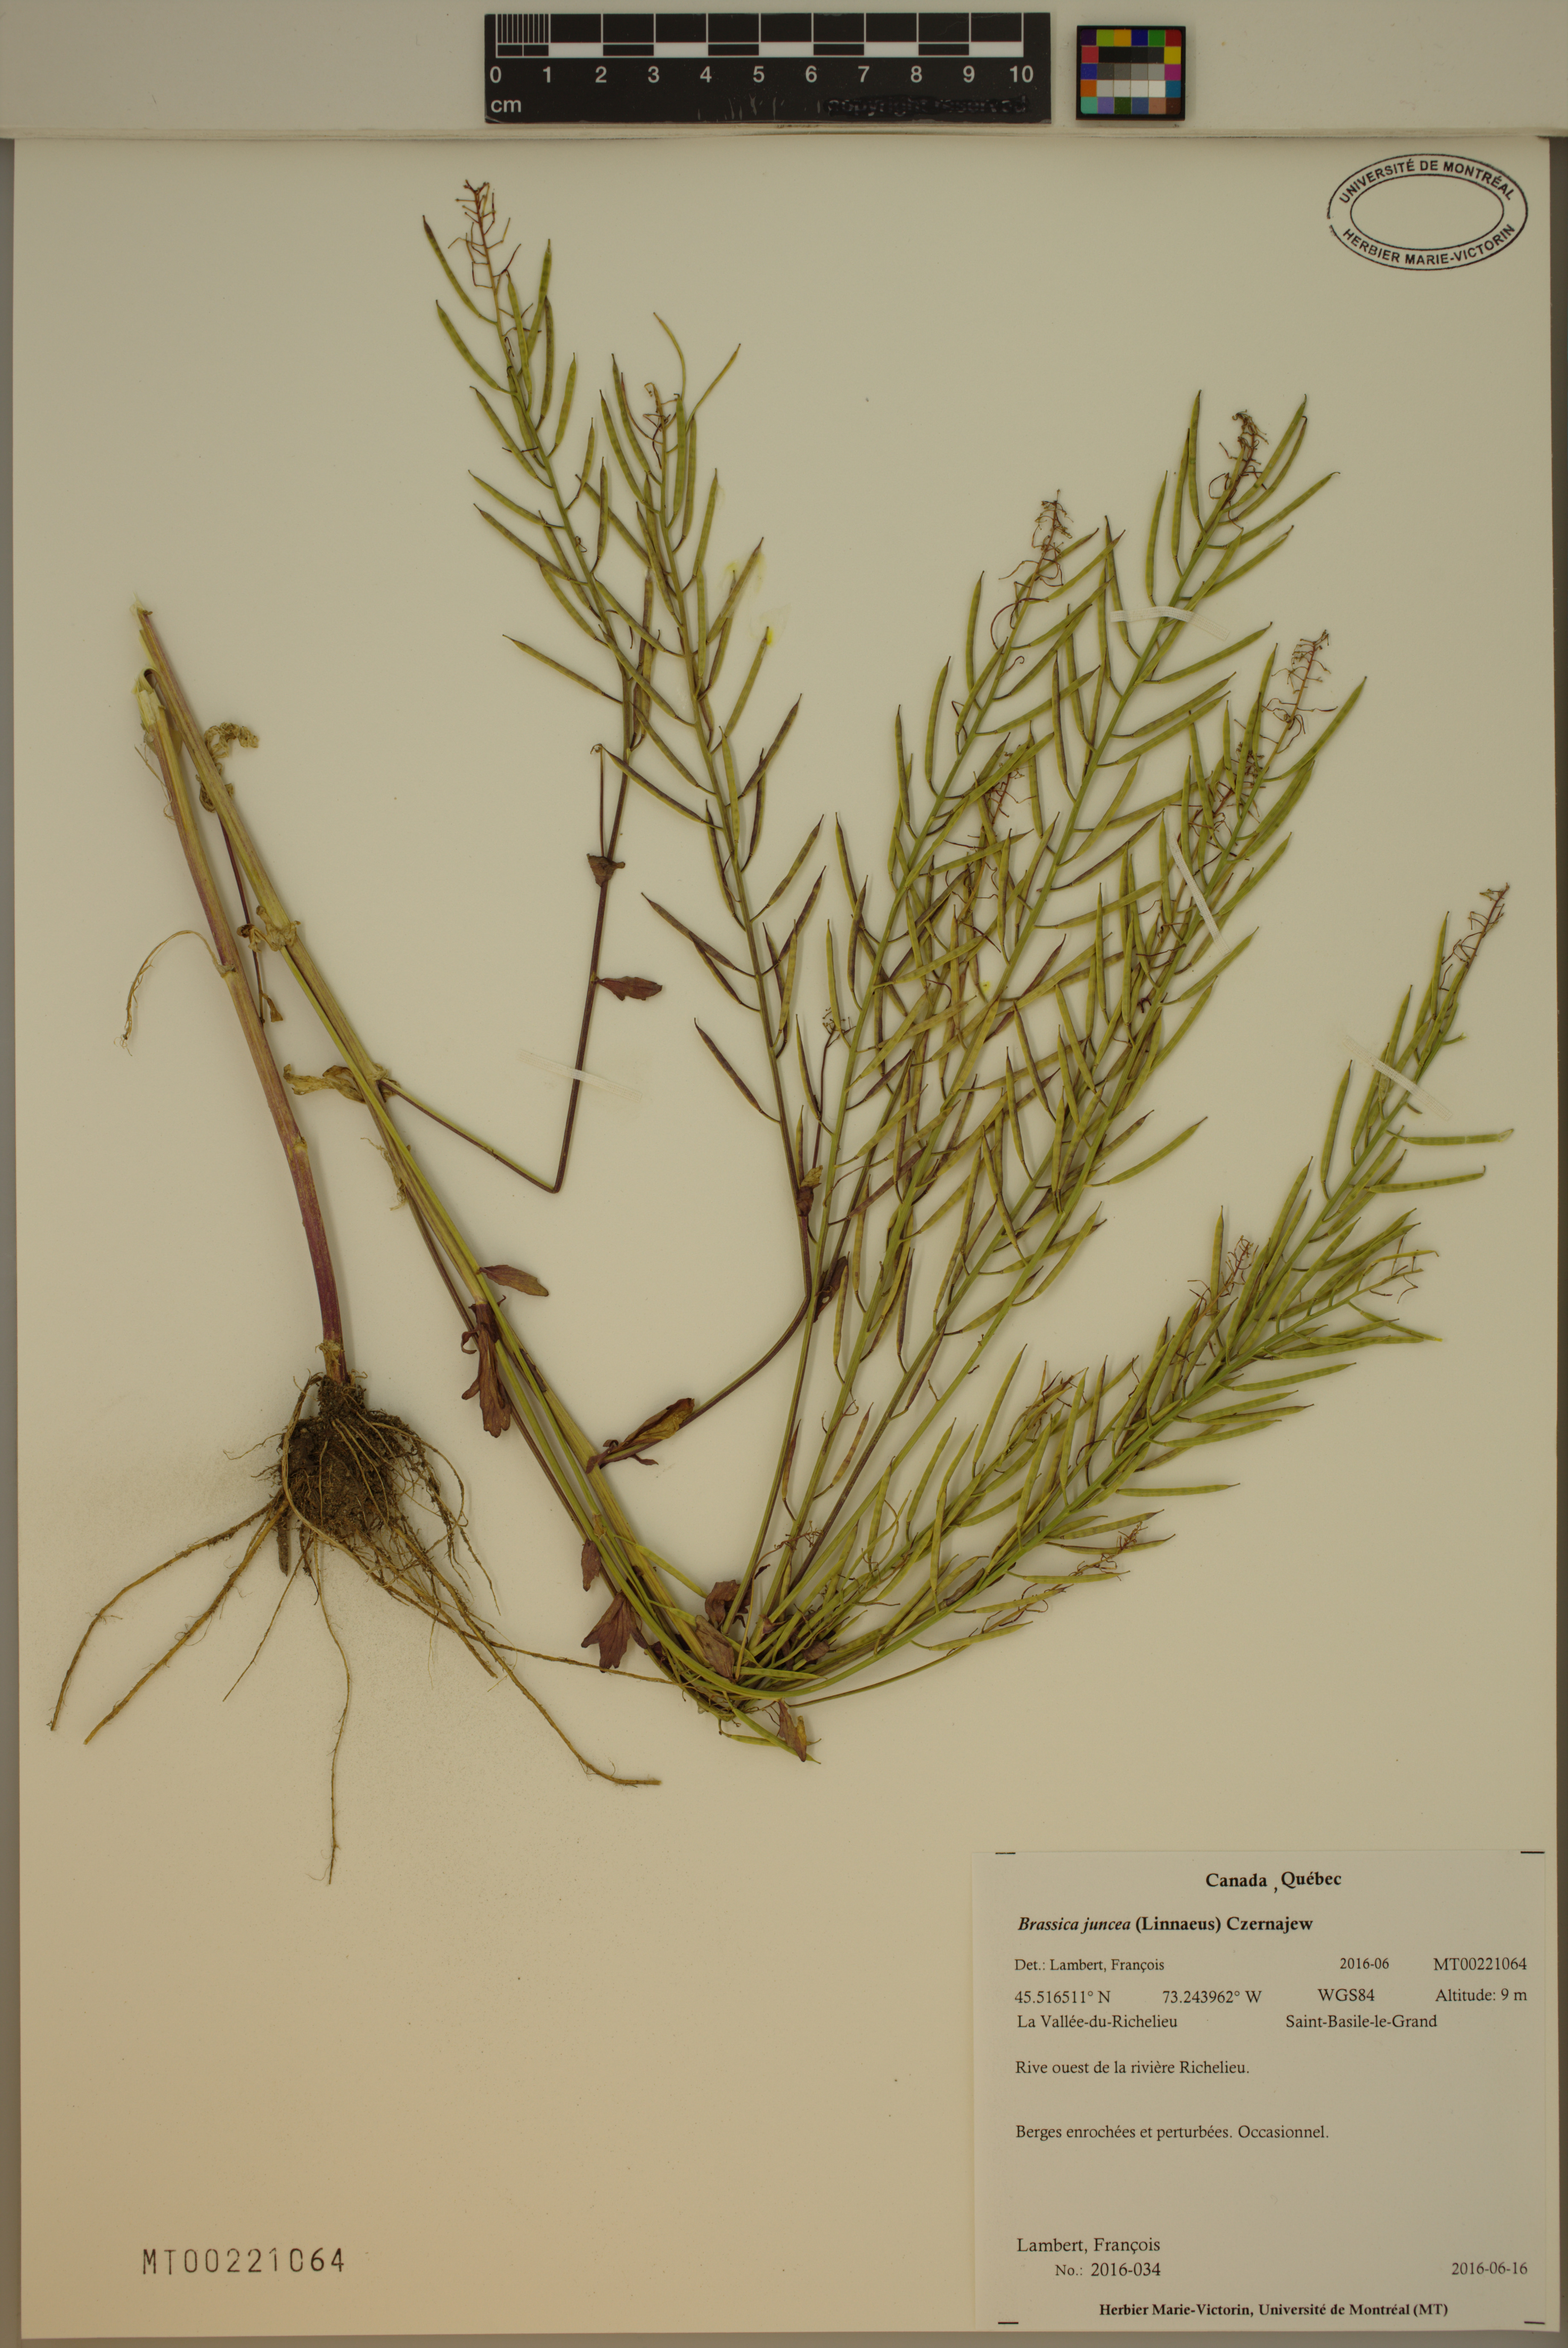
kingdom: Plantae
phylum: Tracheophyta
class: Magnoliopsida
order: Brassicales
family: Brassicaceae
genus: Brassica
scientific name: Brassica juncea
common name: Brown mustard
